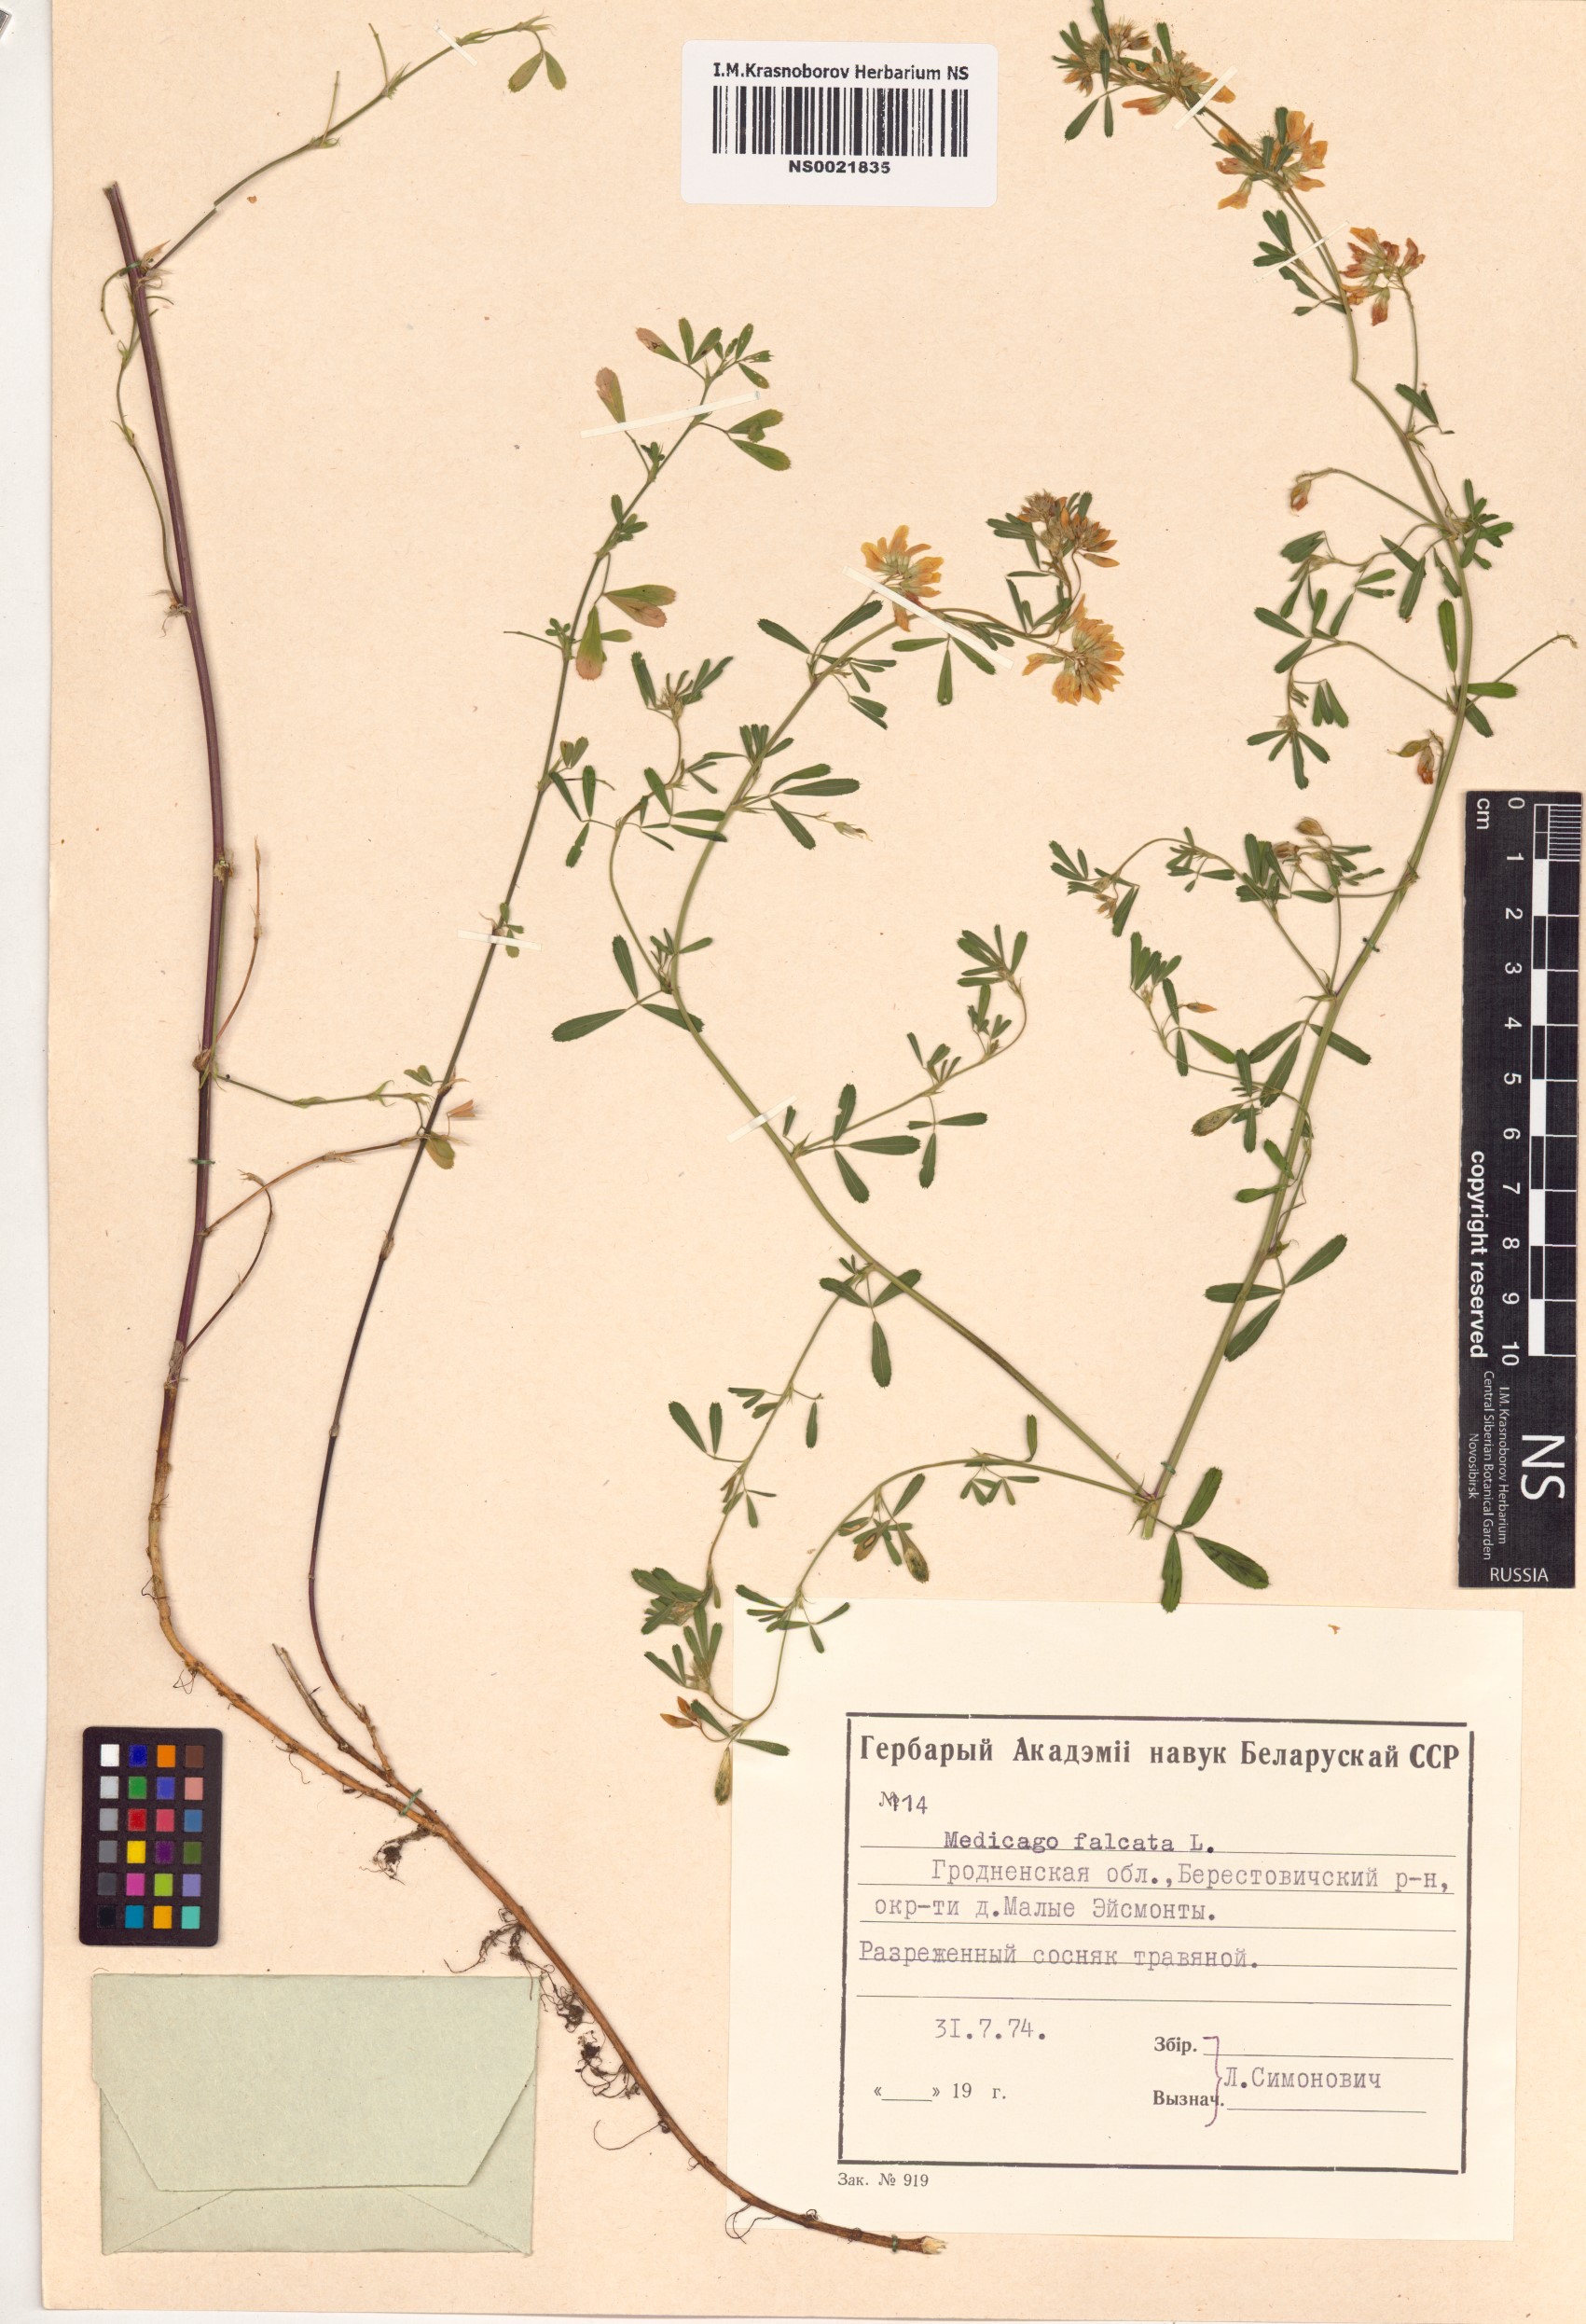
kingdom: Plantae
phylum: Tracheophyta
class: Magnoliopsida
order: Fabales
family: Fabaceae
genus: Medicago
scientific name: Medicago falcata
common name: Sickle medick
